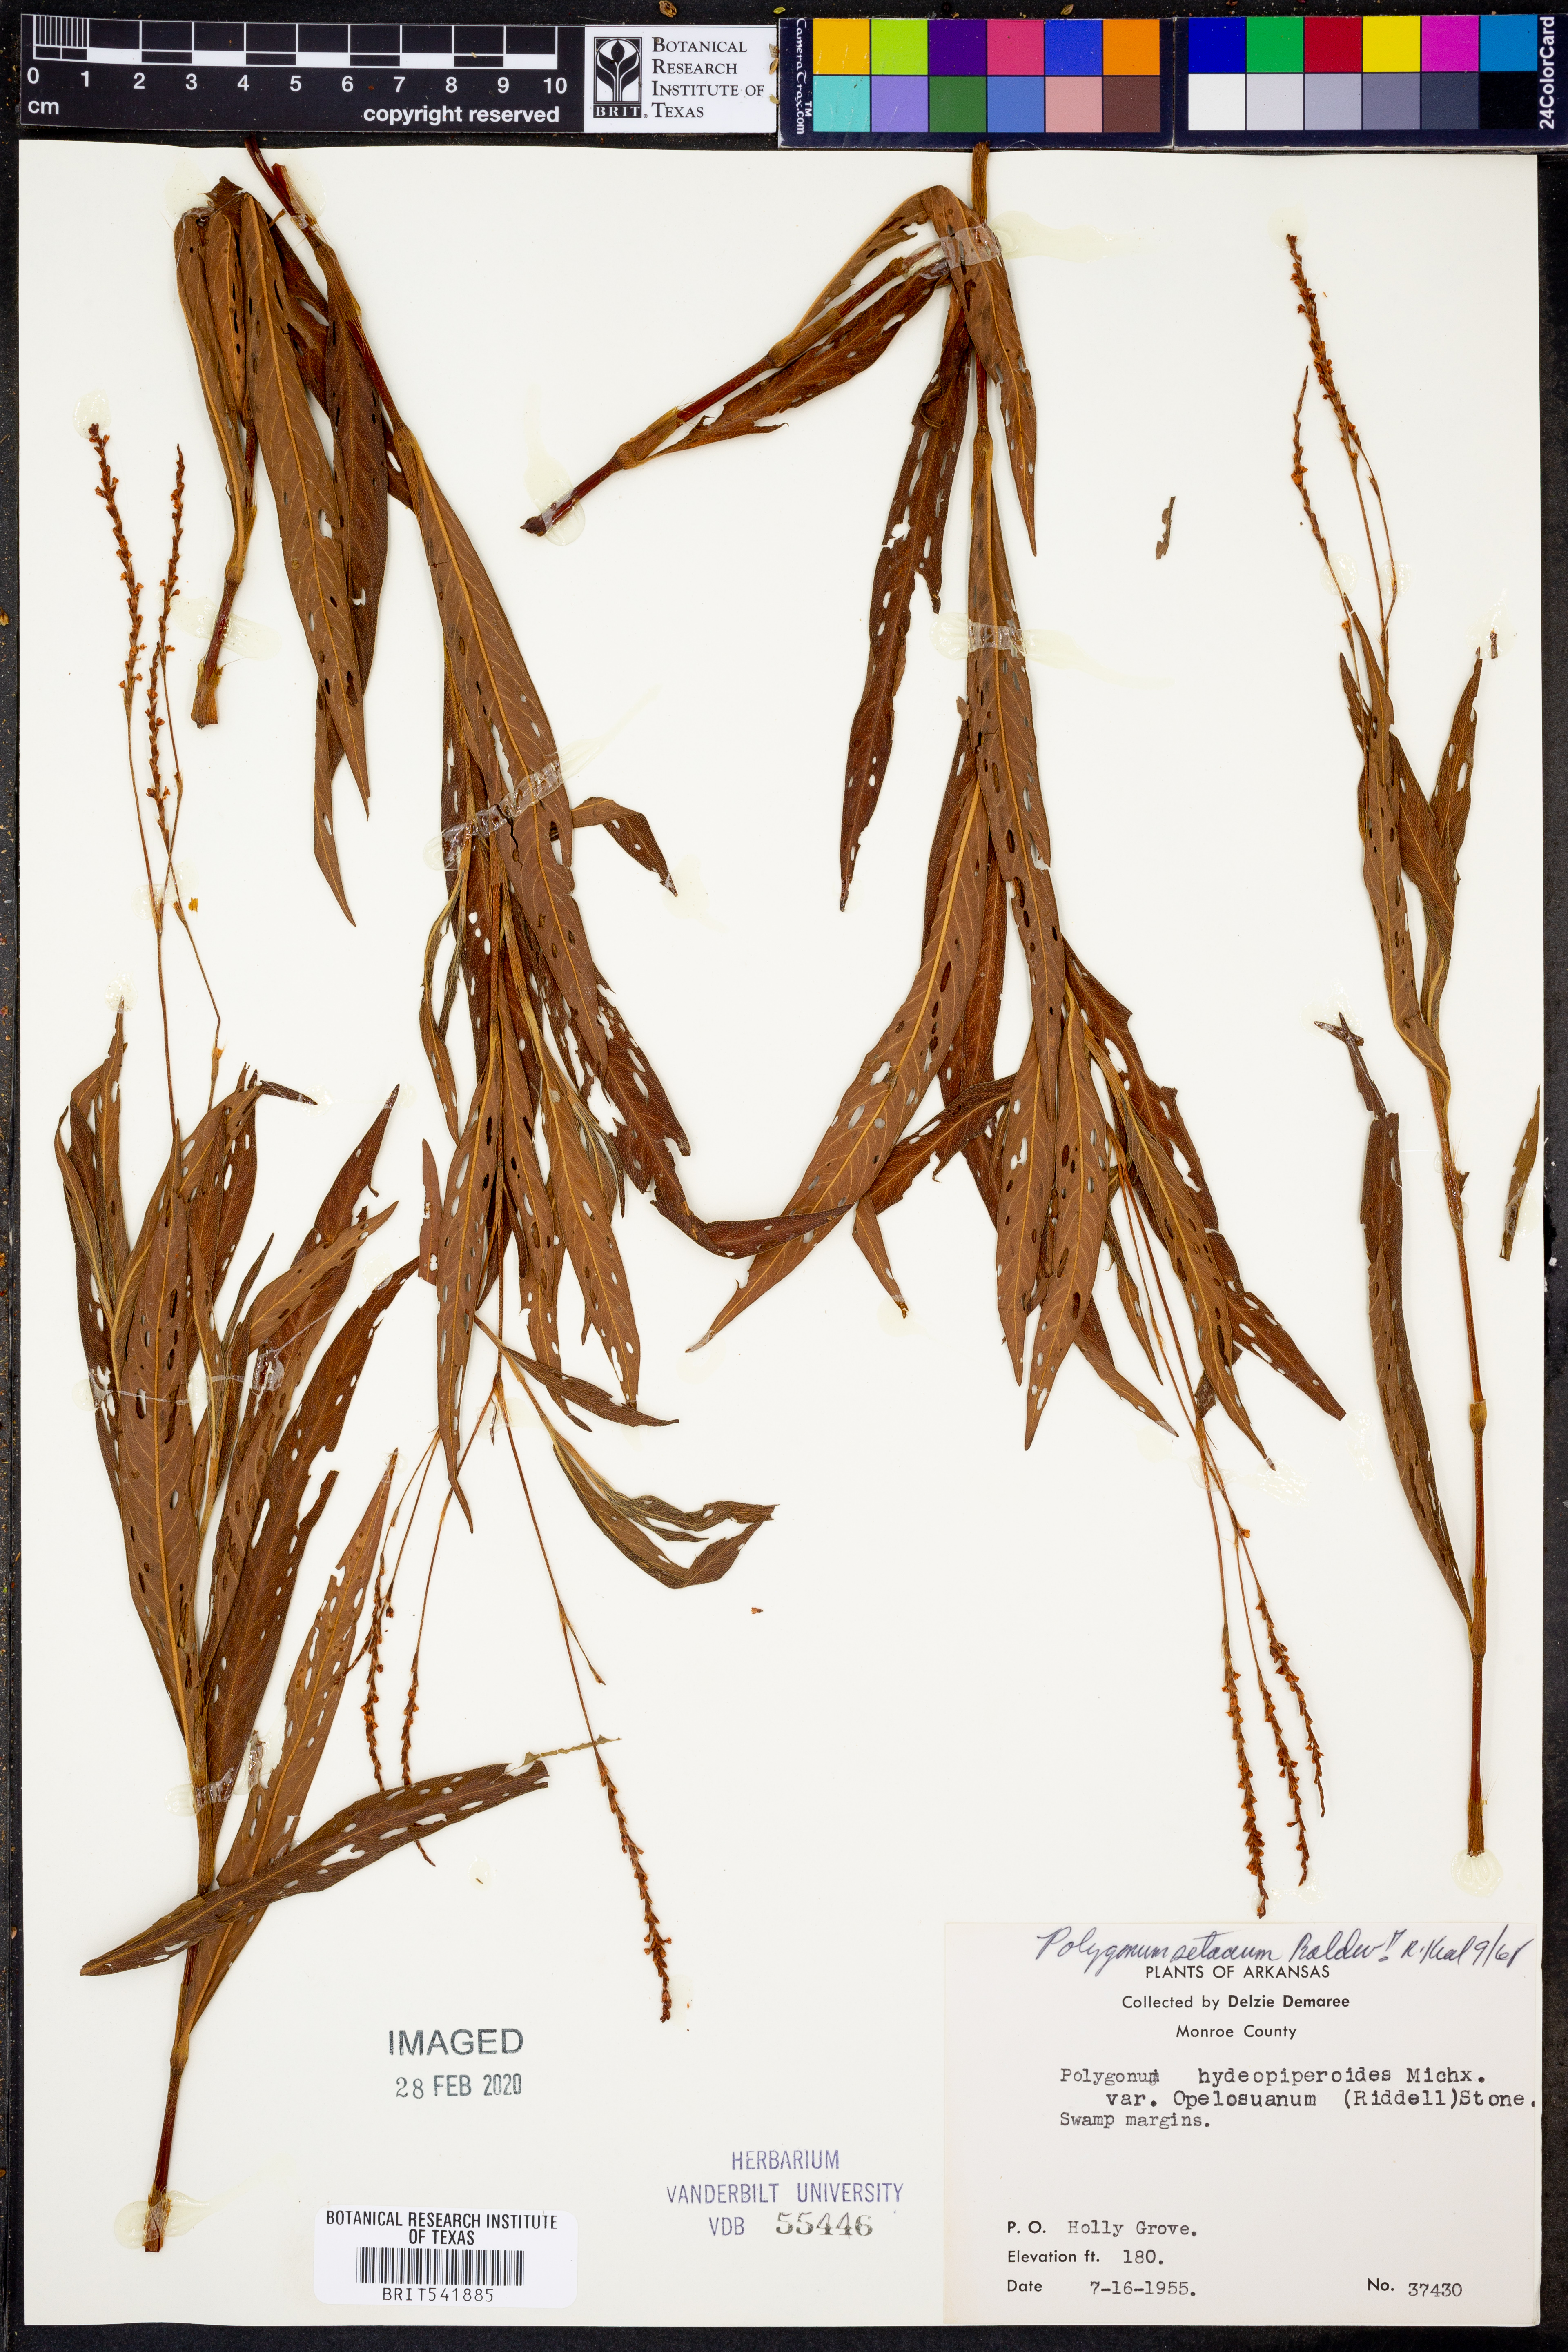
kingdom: Plantae
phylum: Tracheophyta
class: Magnoliopsida
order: Caryophyllales
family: Polygonaceae
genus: Persicaria
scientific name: Persicaria setacea
